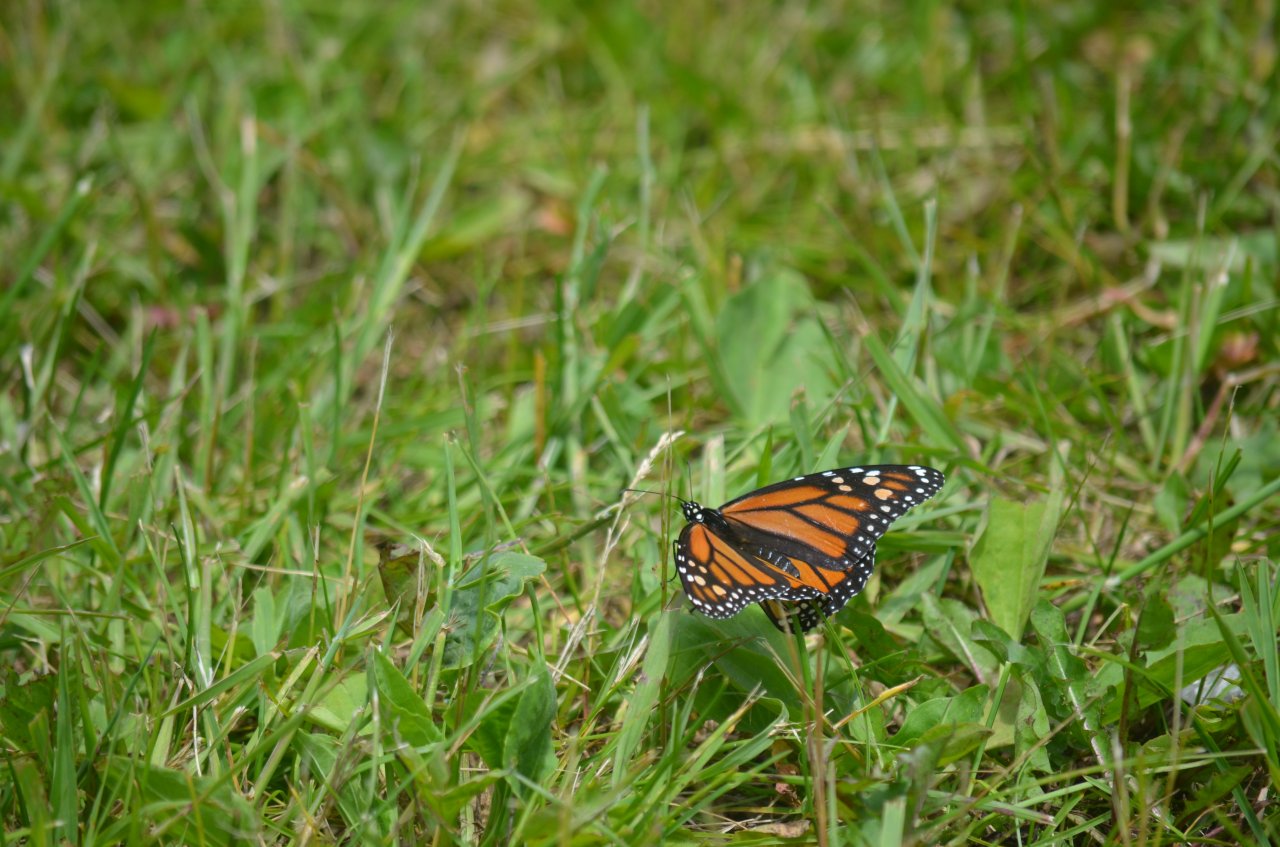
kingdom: Animalia
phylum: Arthropoda
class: Insecta
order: Lepidoptera
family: Nymphalidae
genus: Danaus
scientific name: Danaus plexippus
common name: Monarch
